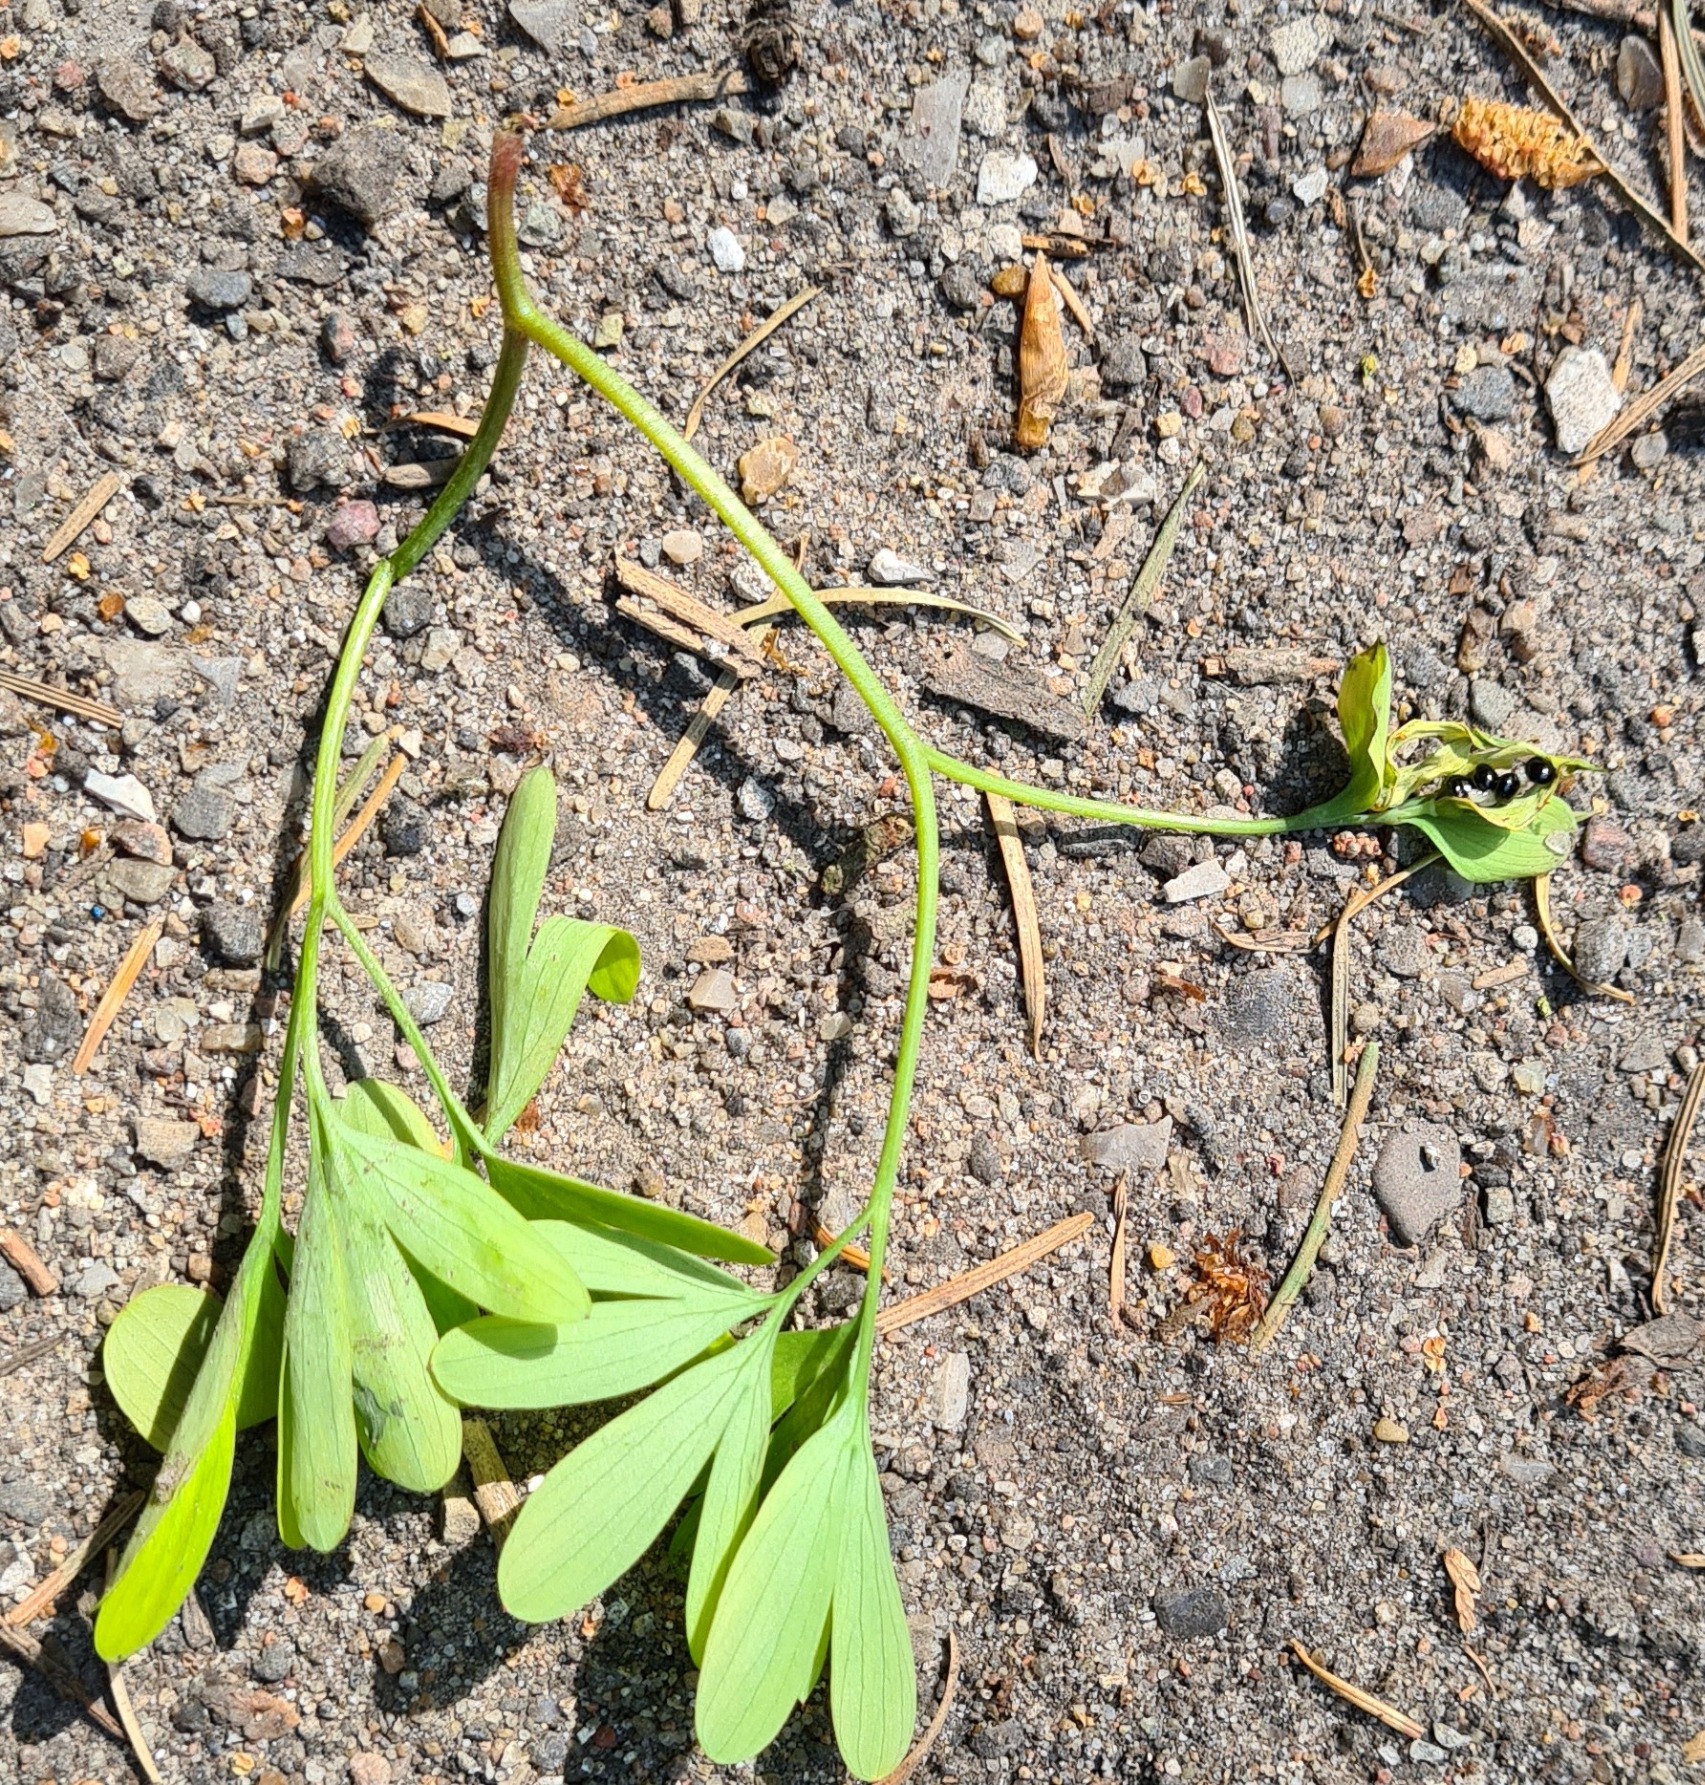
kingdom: Plantae
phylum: Tracheophyta
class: Magnoliopsida
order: Ranunculales
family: Papaveraceae
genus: Corydalis
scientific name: Corydalis intermedia
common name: Liden lærkespore
